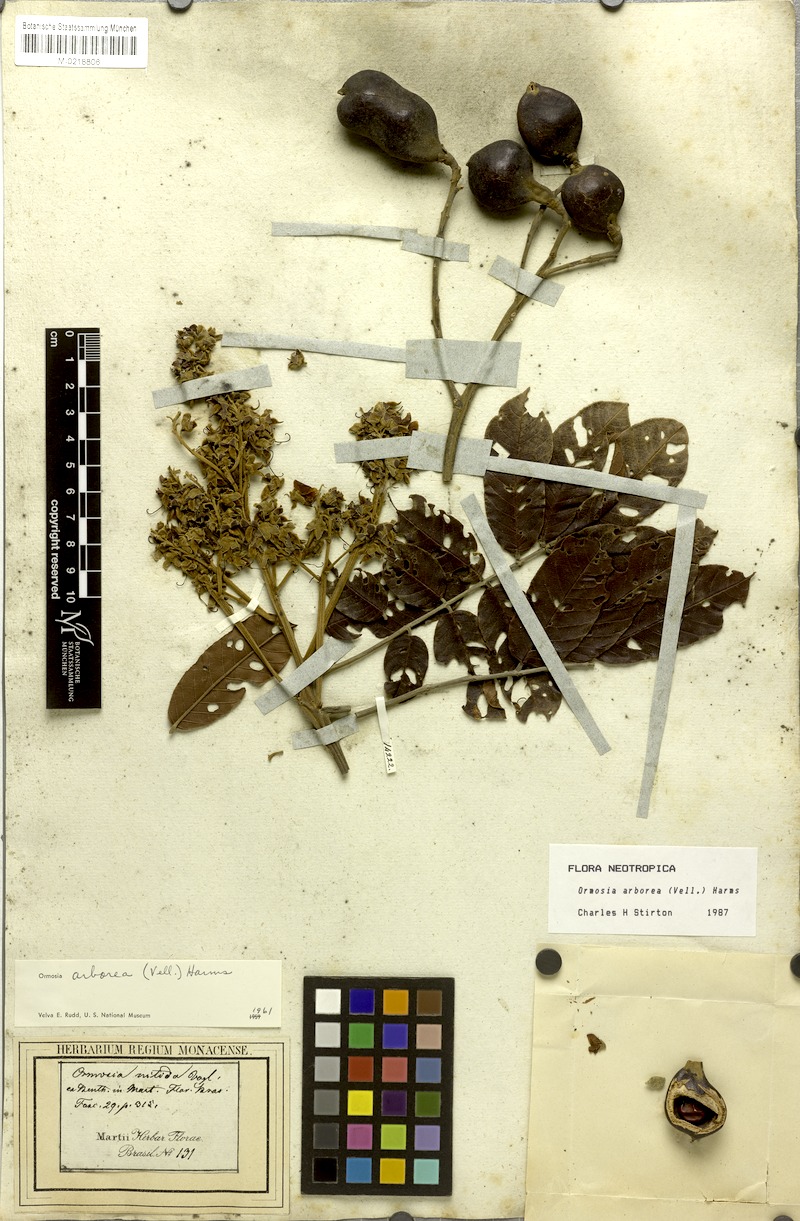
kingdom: Plantae
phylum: Tracheophyta
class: Magnoliopsida
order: Fabales
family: Fabaceae
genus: Ormosia
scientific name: Ormosia arborea
